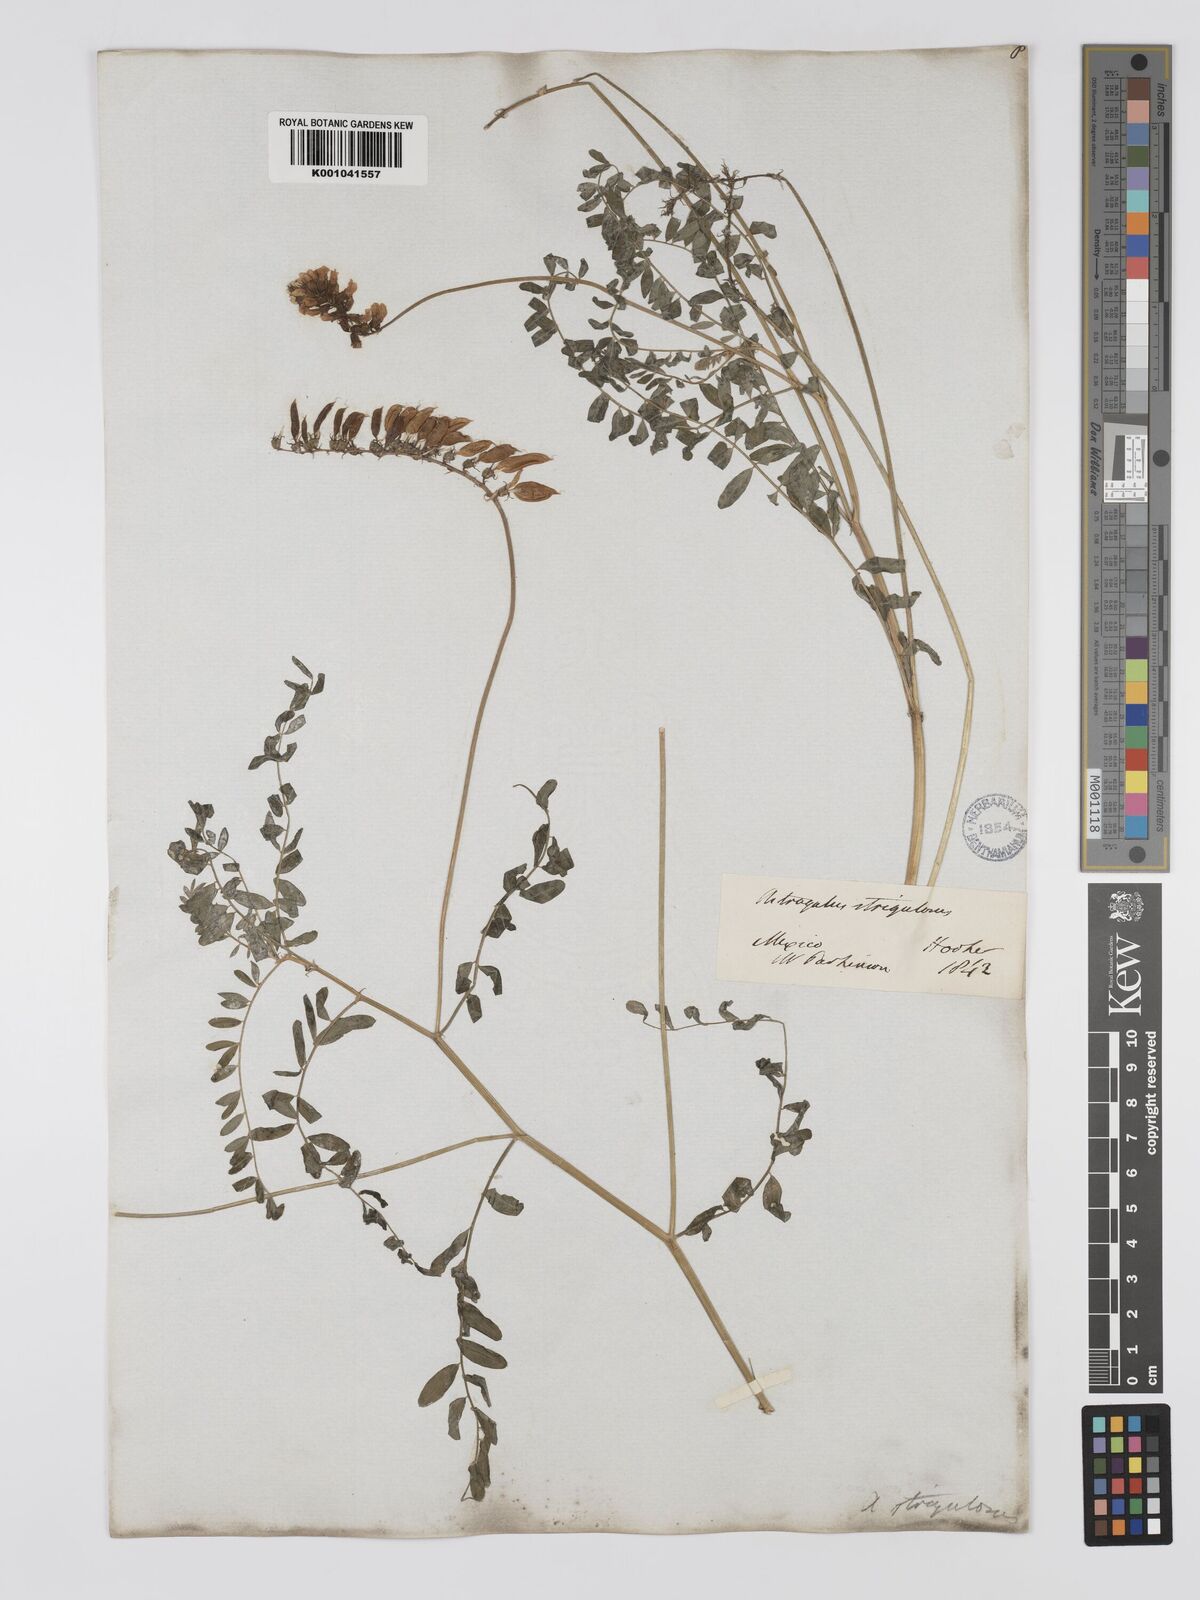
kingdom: Plantae
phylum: Tracheophyta
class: Magnoliopsida
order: Fabales
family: Fabaceae
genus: Astragalus
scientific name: Astragalus strigulosus
